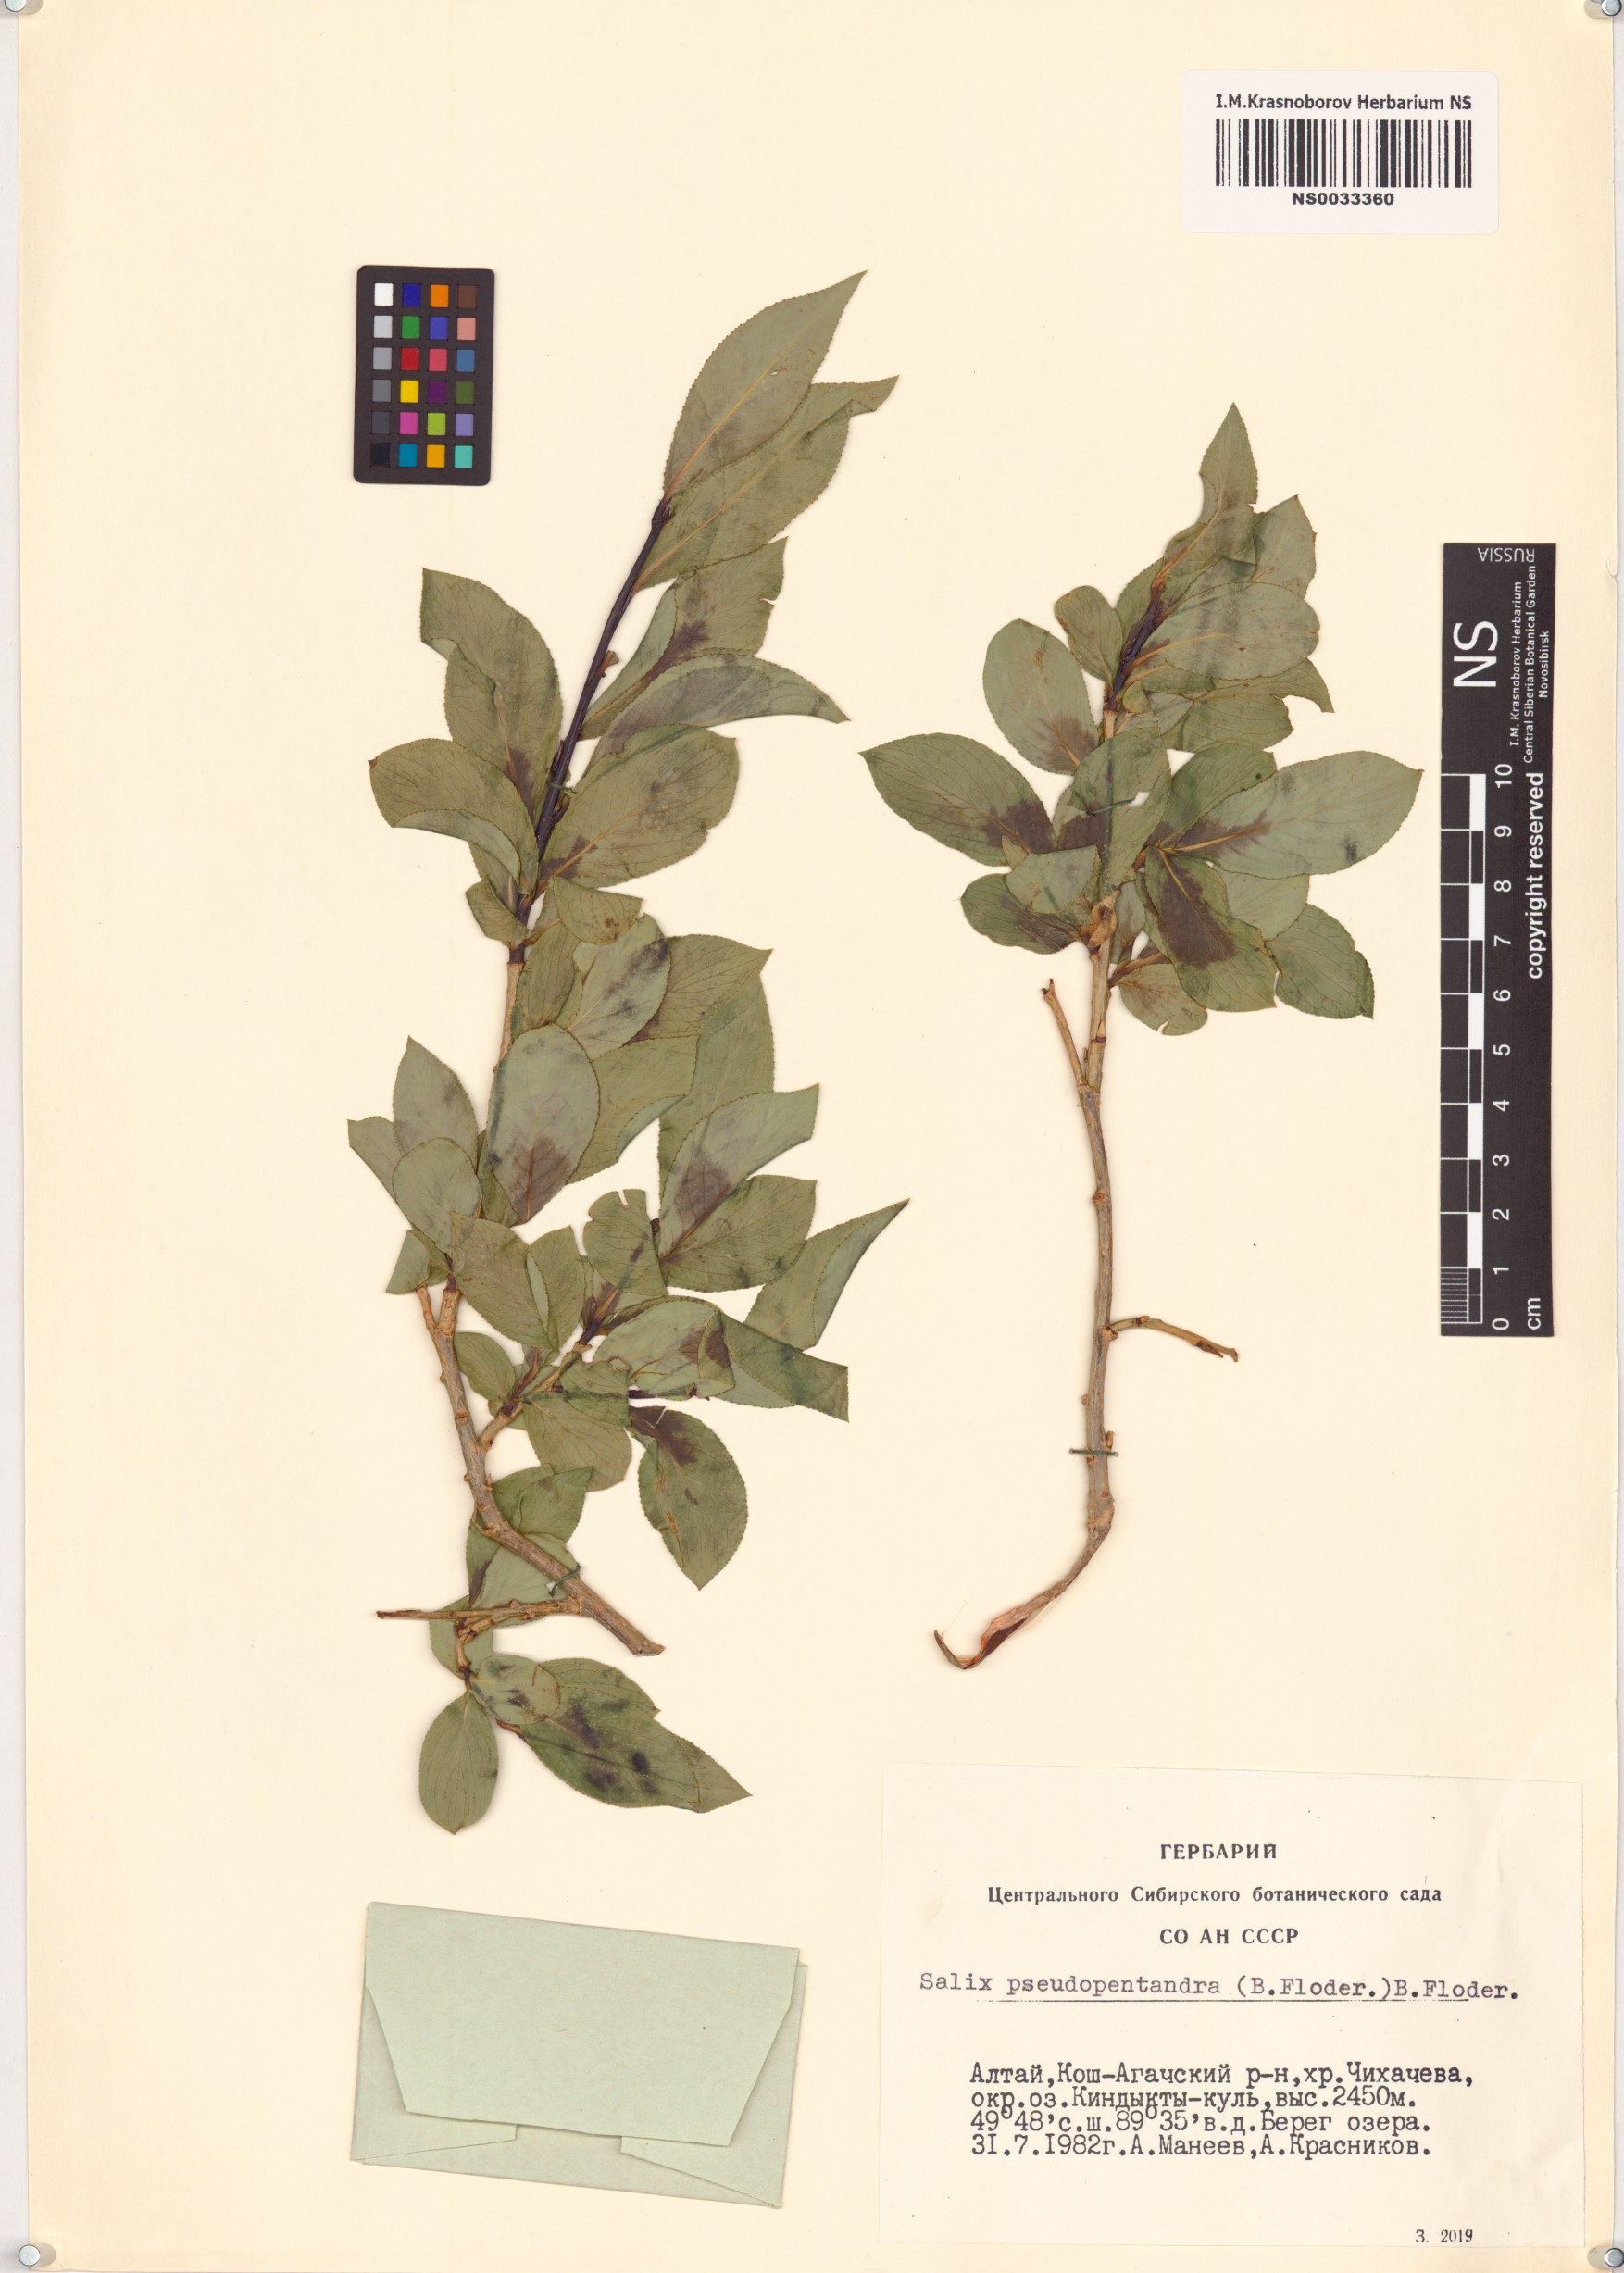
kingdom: Plantae
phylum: Tracheophyta
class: Magnoliopsida
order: Malpighiales
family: Salicaceae
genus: Salix
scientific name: Salix pseudopentandra
